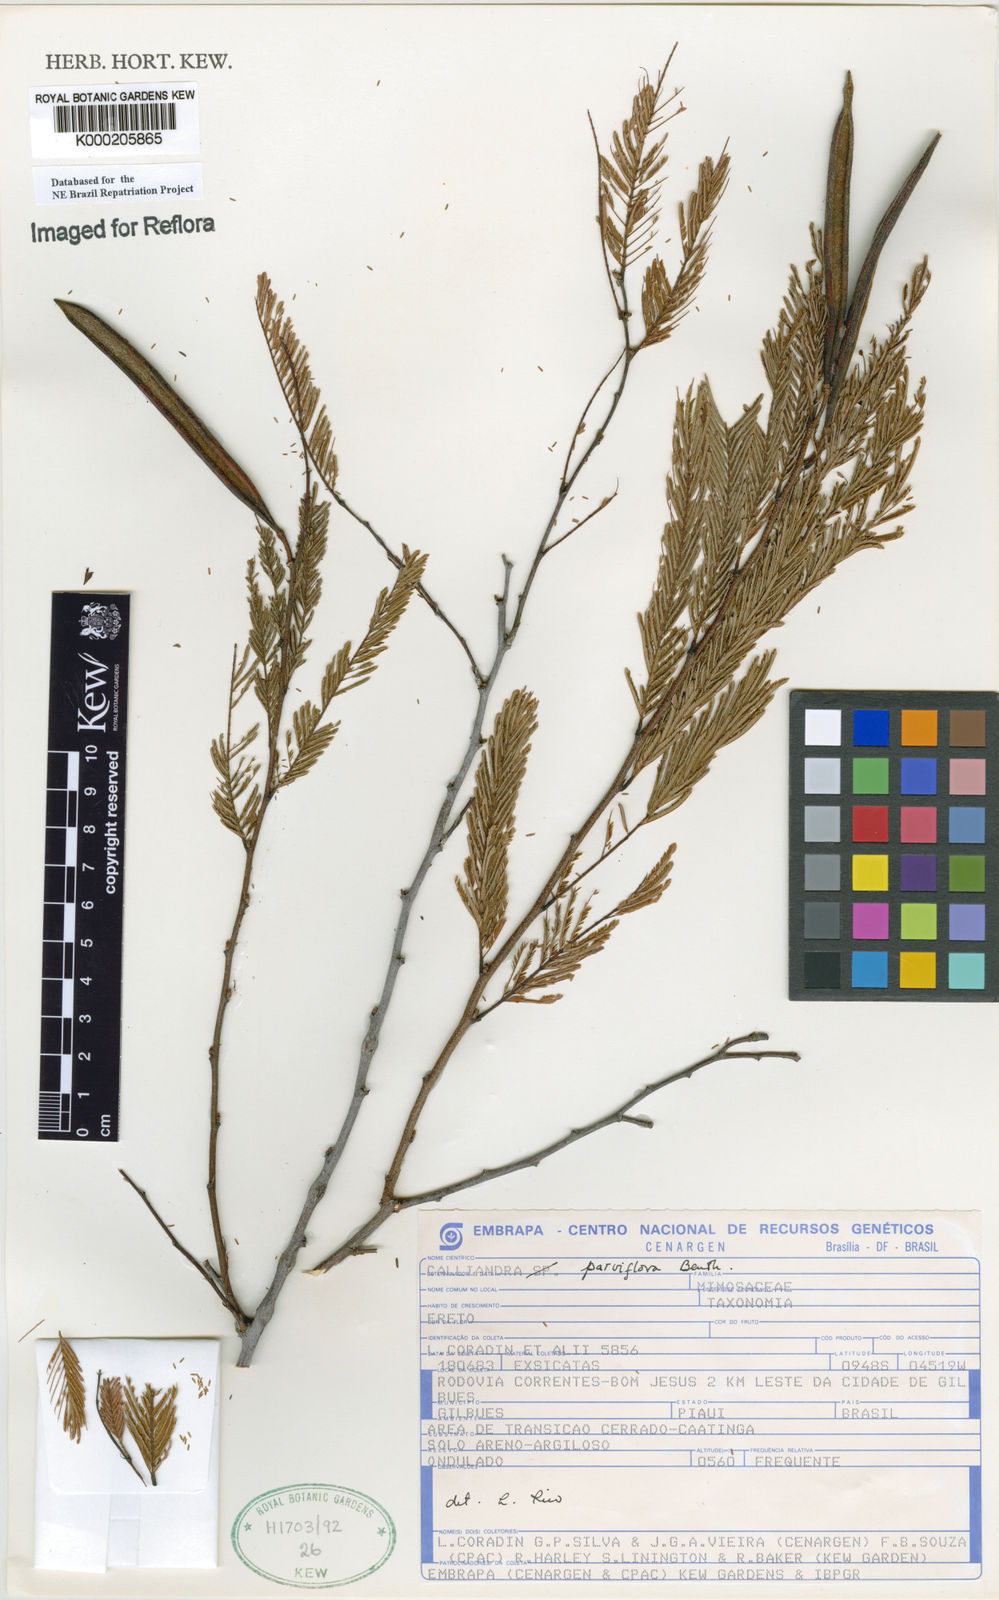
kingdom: Plantae
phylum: Tracheophyta
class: Magnoliopsida
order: Fabales
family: Fabaceae
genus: Calliandra
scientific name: Calliandra parviflora
